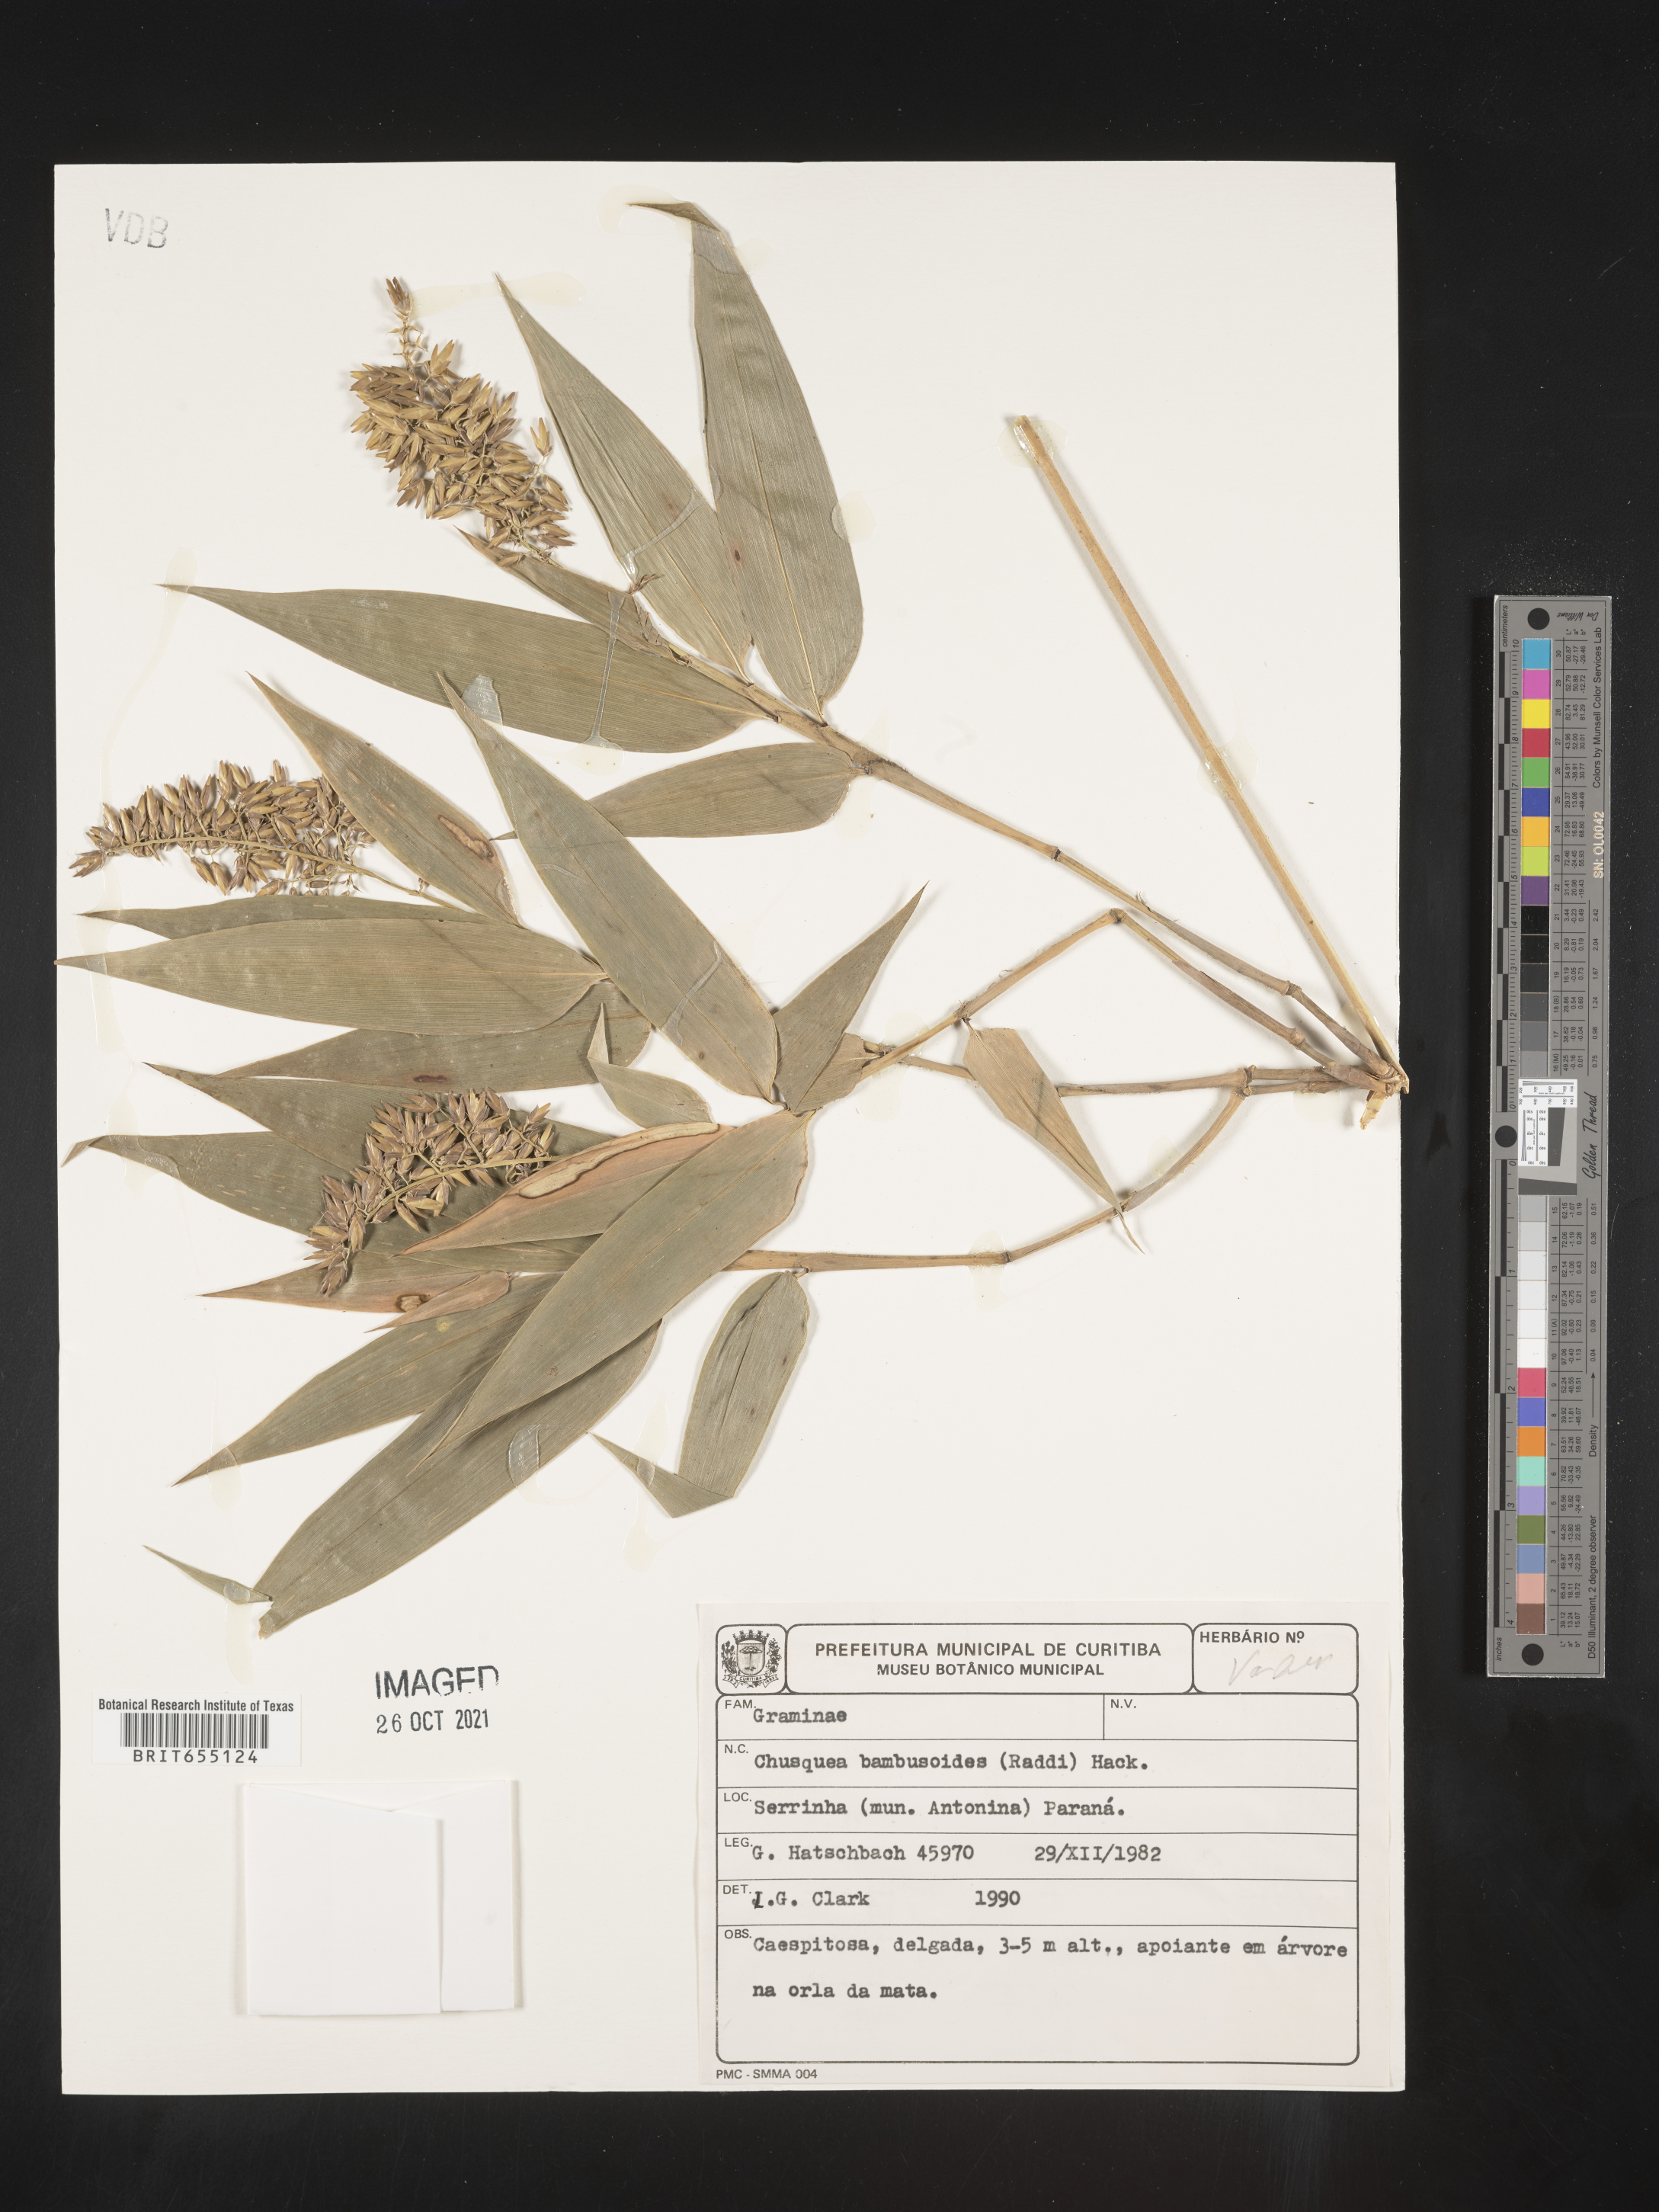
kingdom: Plantae
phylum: Tracheophyta
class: Liliopsida
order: Poales
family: Poaceae
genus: Chusquea
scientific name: Chusquea
